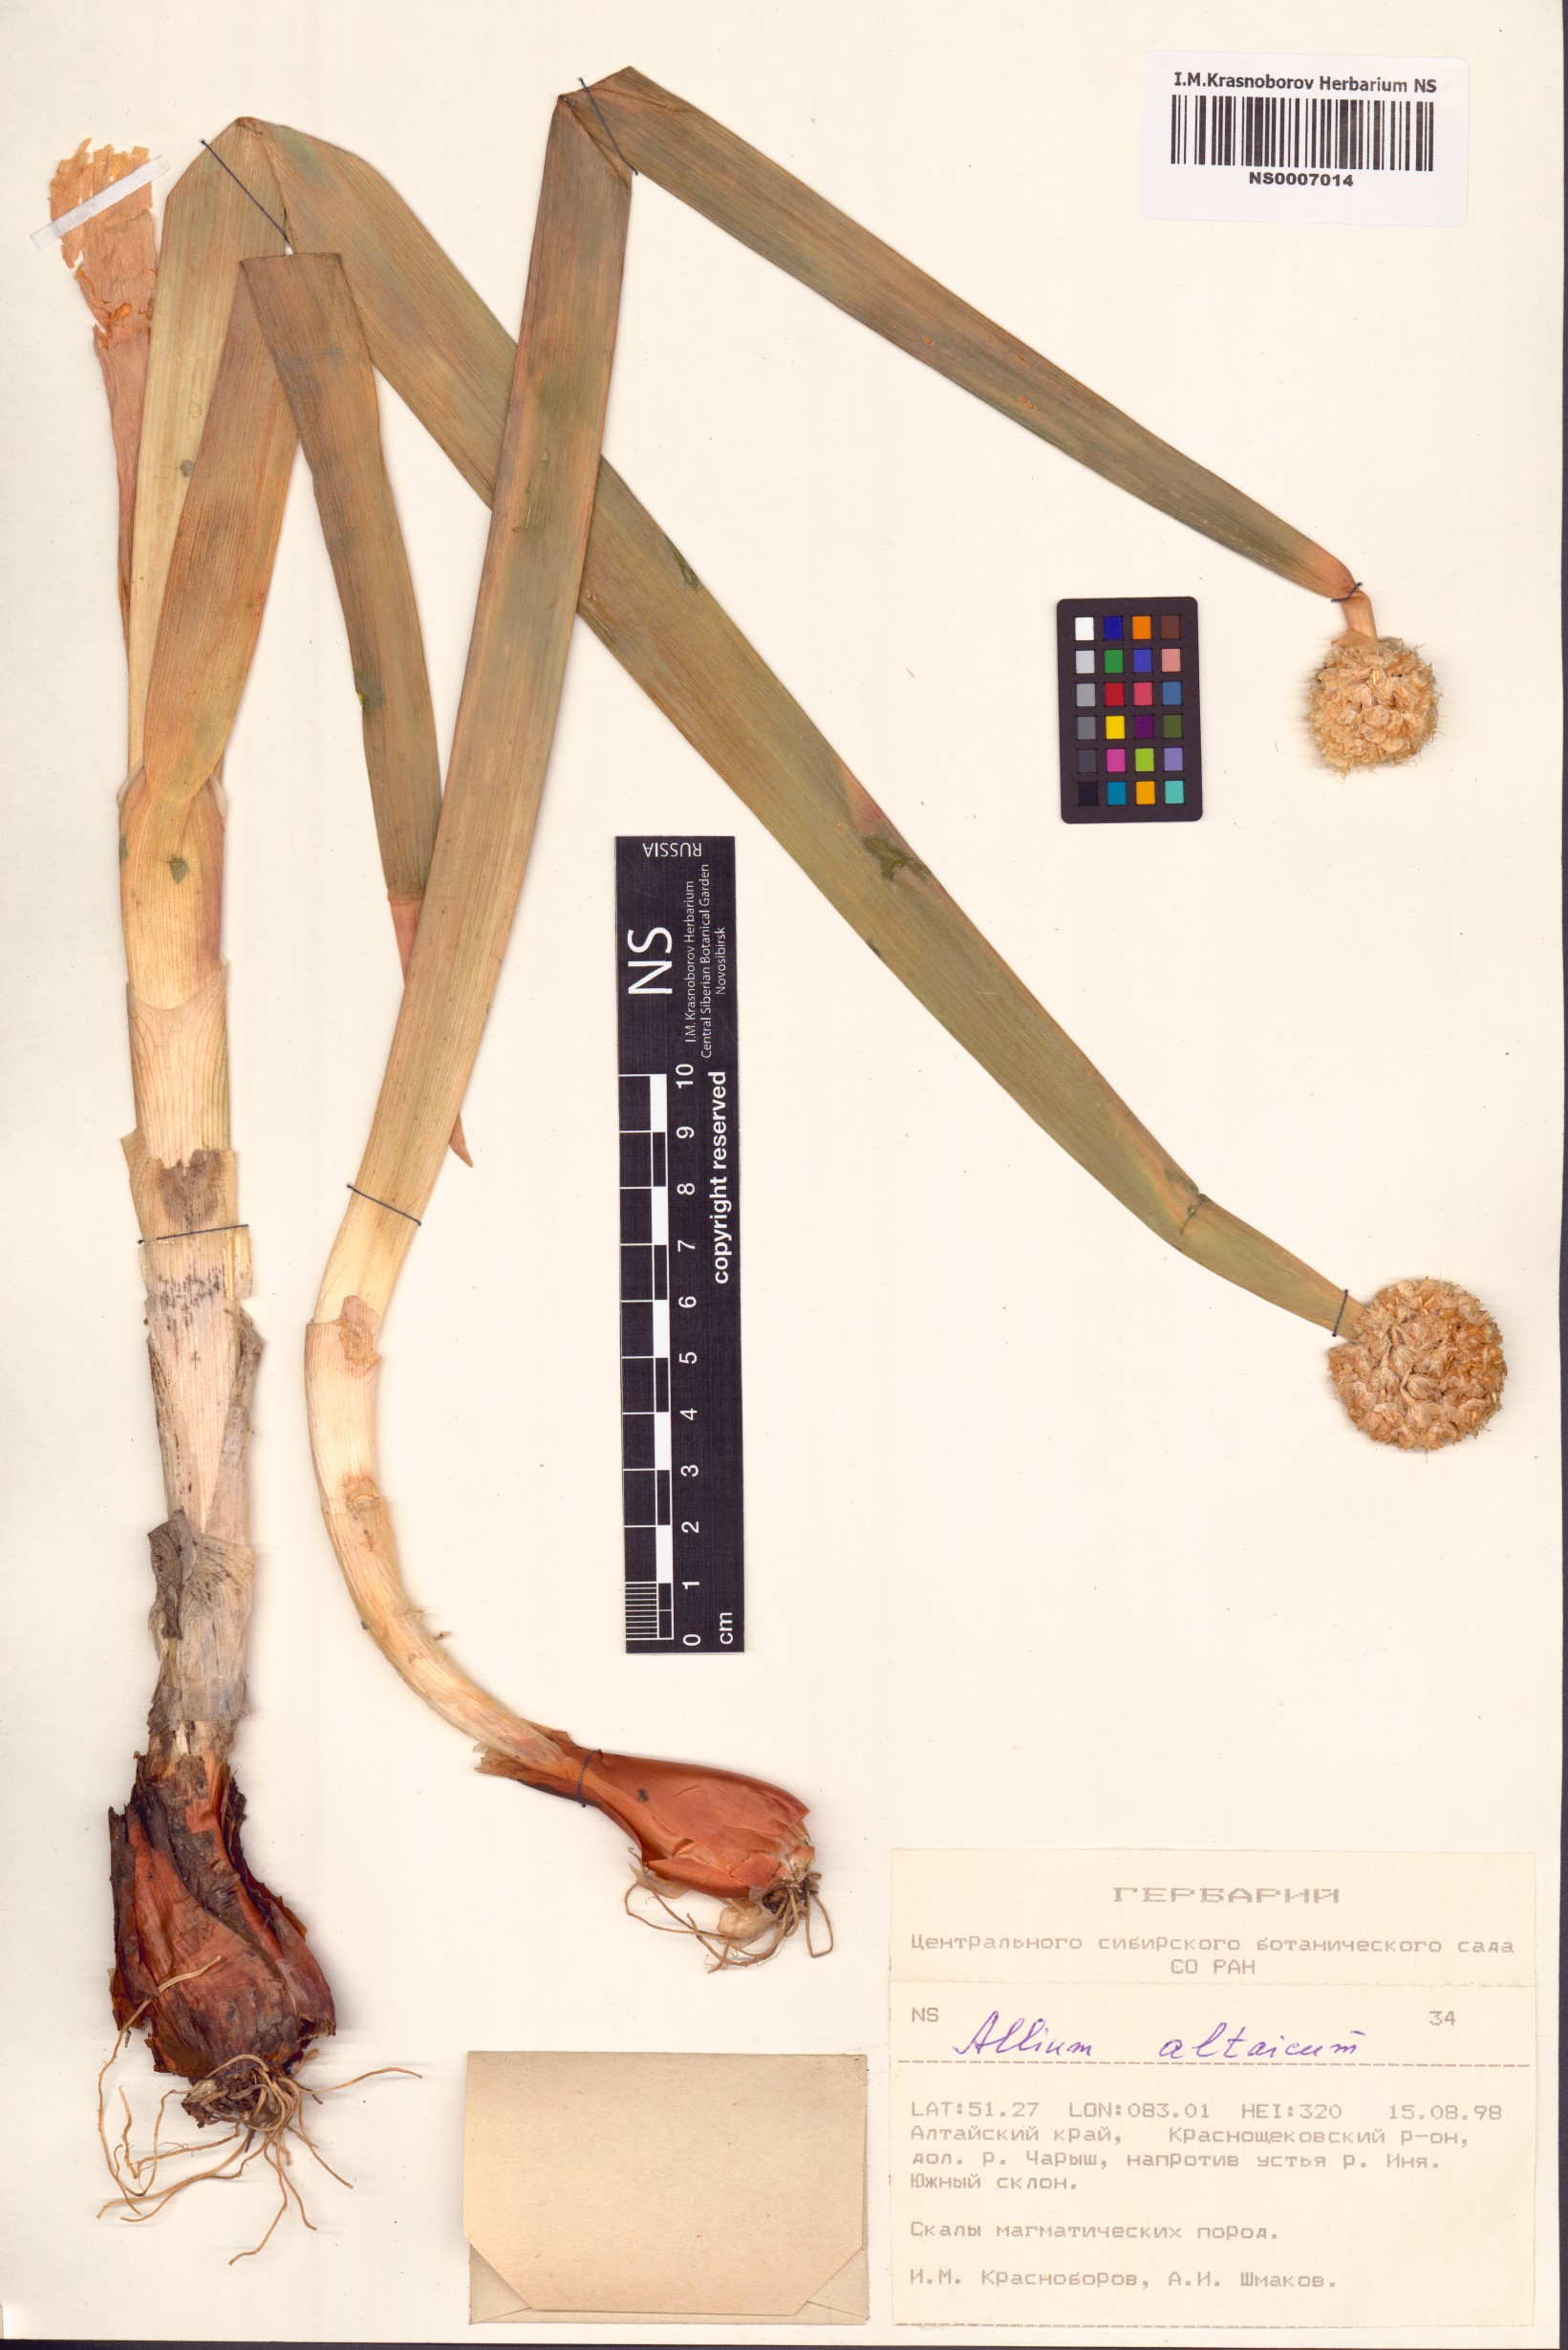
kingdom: Plantae
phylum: Tracheophyta
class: Liliopsida
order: Asparagales
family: Amaryllidaceae
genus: Allium
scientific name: Allium altaicum
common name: Altai onion
